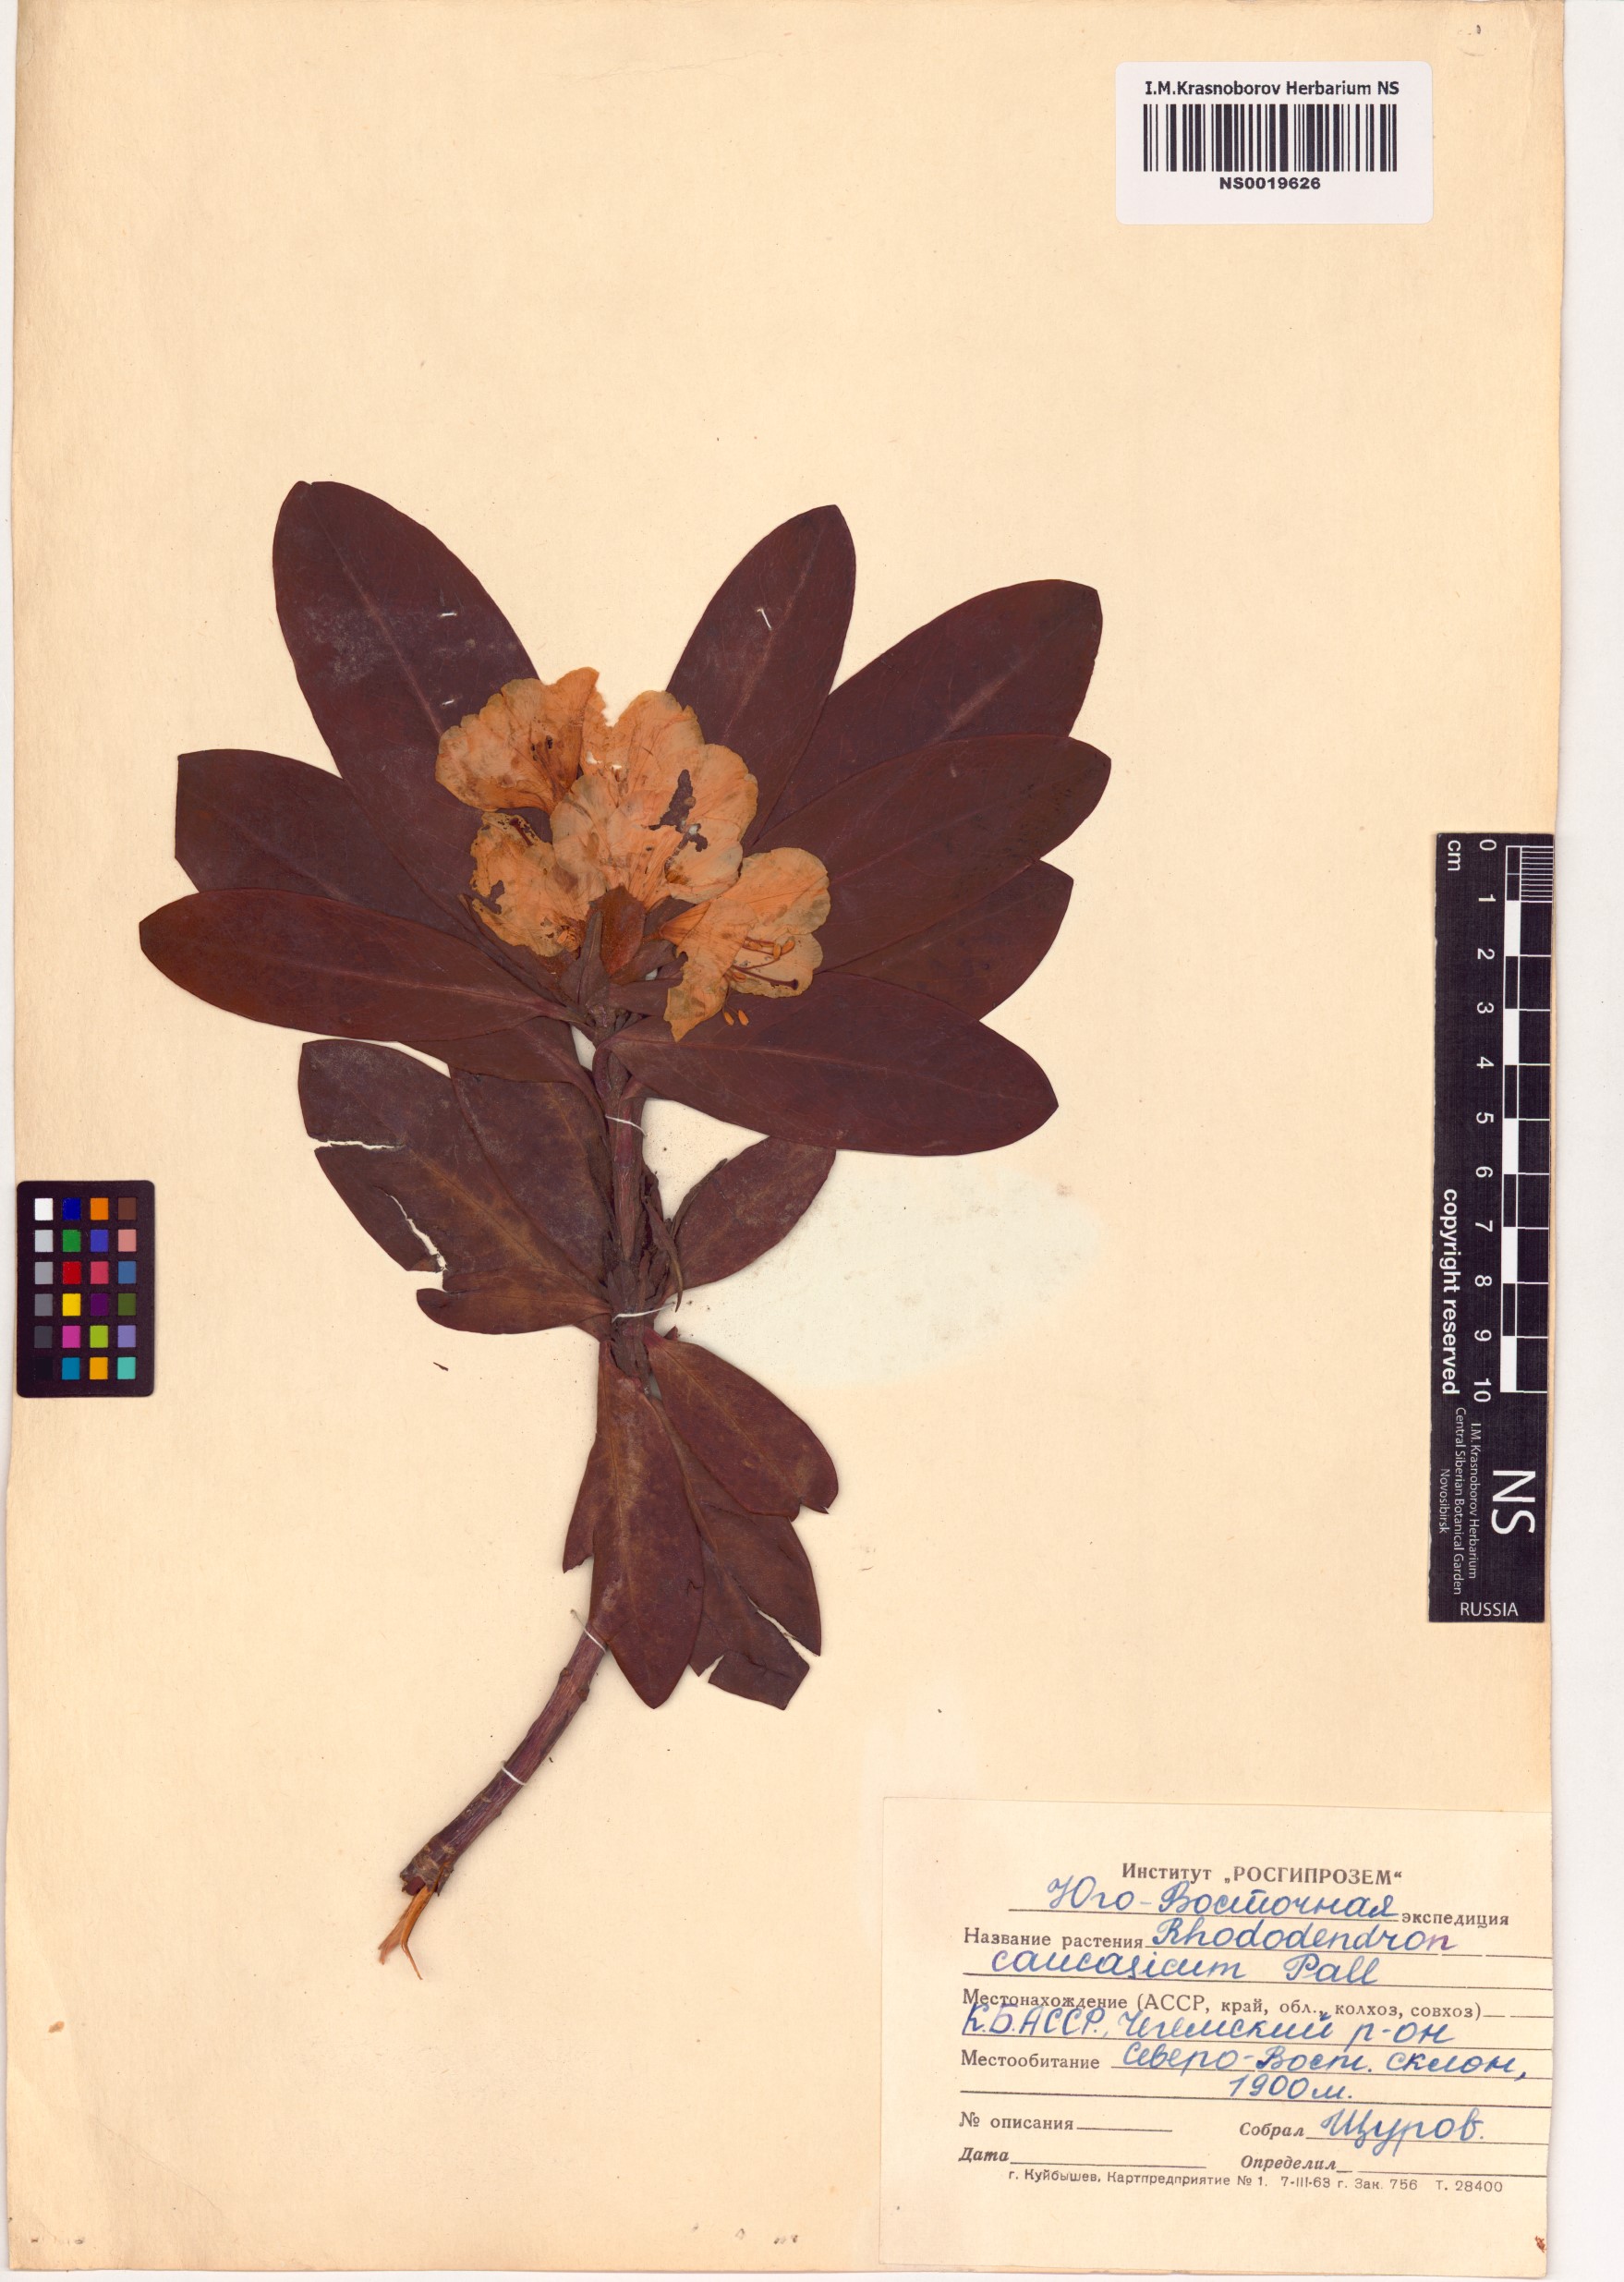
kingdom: Plantae
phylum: Tracheophyta
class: Magnoliopsida
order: Ericales
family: Ericaceae
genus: Rhododendron
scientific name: Rhododendron caucasicum
